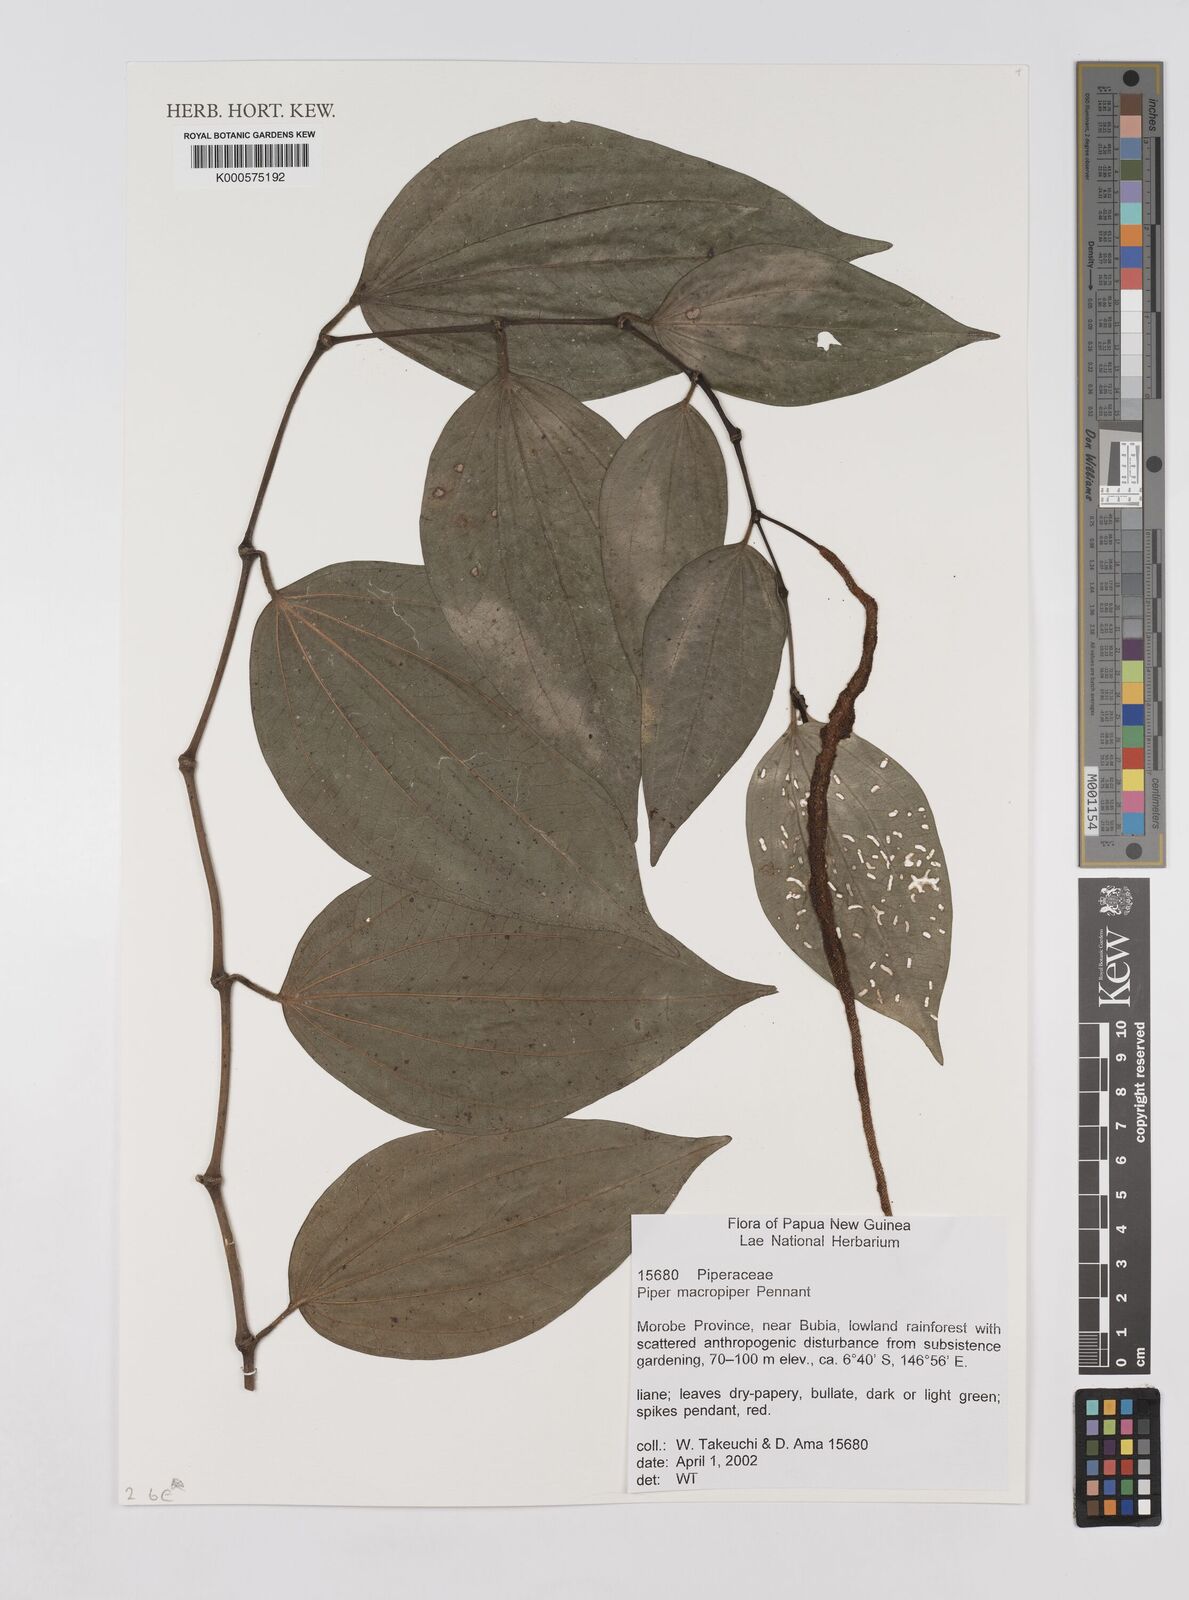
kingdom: Plantae
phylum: Tracheophyta
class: Magnoliopsida
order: Piperales
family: Piperaceae
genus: Piper
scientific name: Piper macropiper
